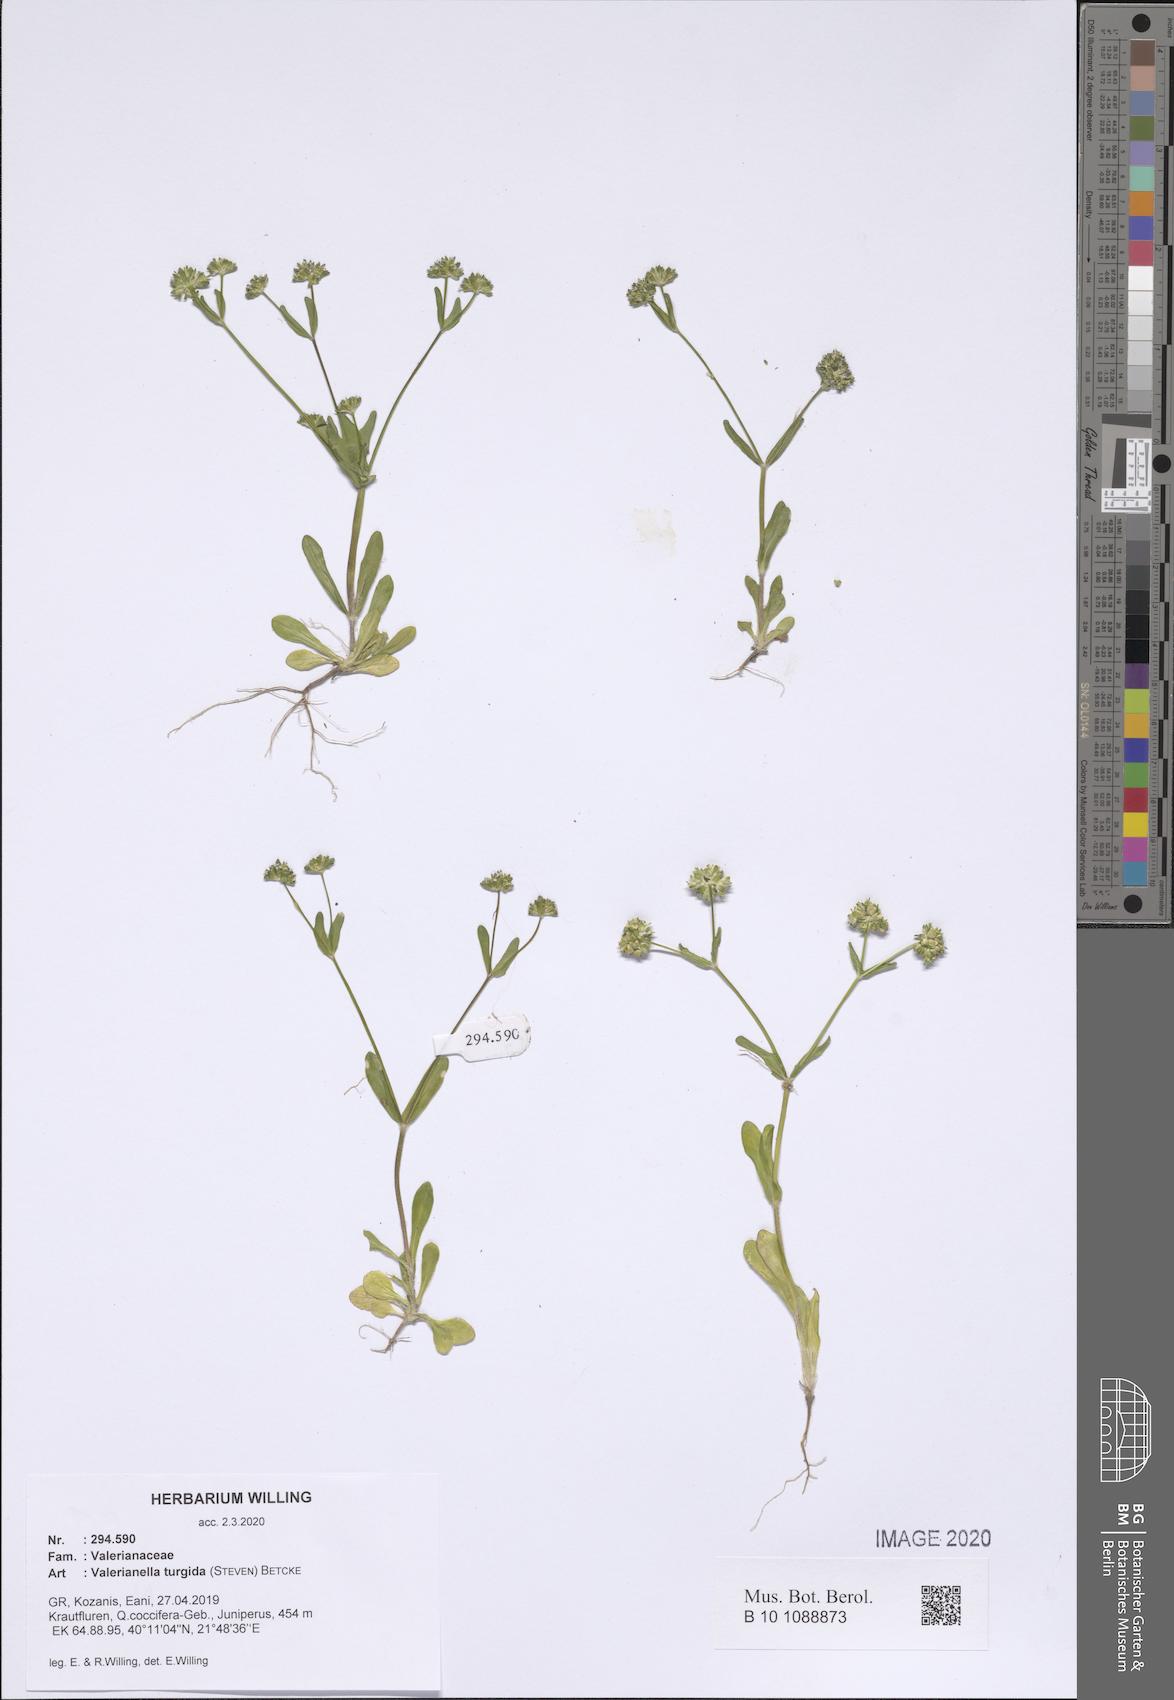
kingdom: Plantae
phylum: Tracheophyta
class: Magnoliopsida
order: Dipsacales
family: Caprifoliaceae
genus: Valerianella
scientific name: Valerianella turgida
